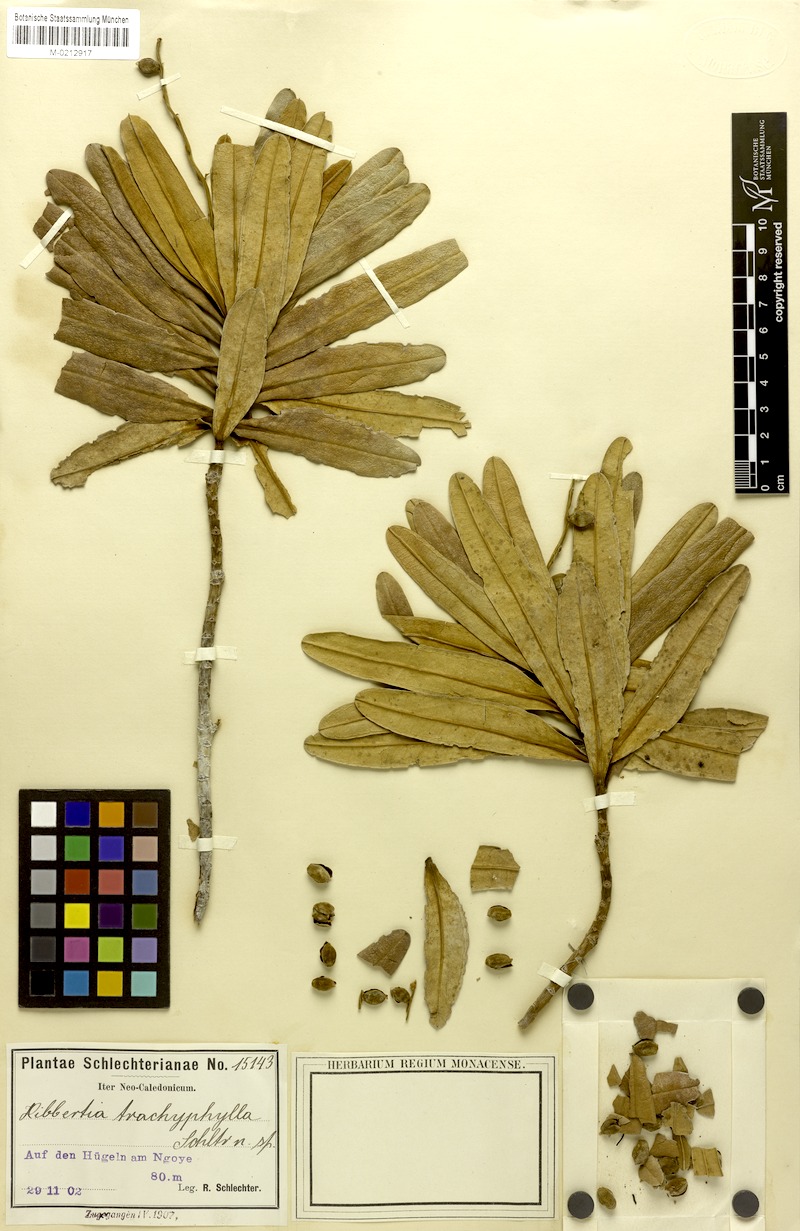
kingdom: Plantae
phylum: Tracheophyta
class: Magnoliopsida
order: Dilleniales
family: Dilleniaceae
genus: Hibbertia
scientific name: Hibbertia trachyphylla
